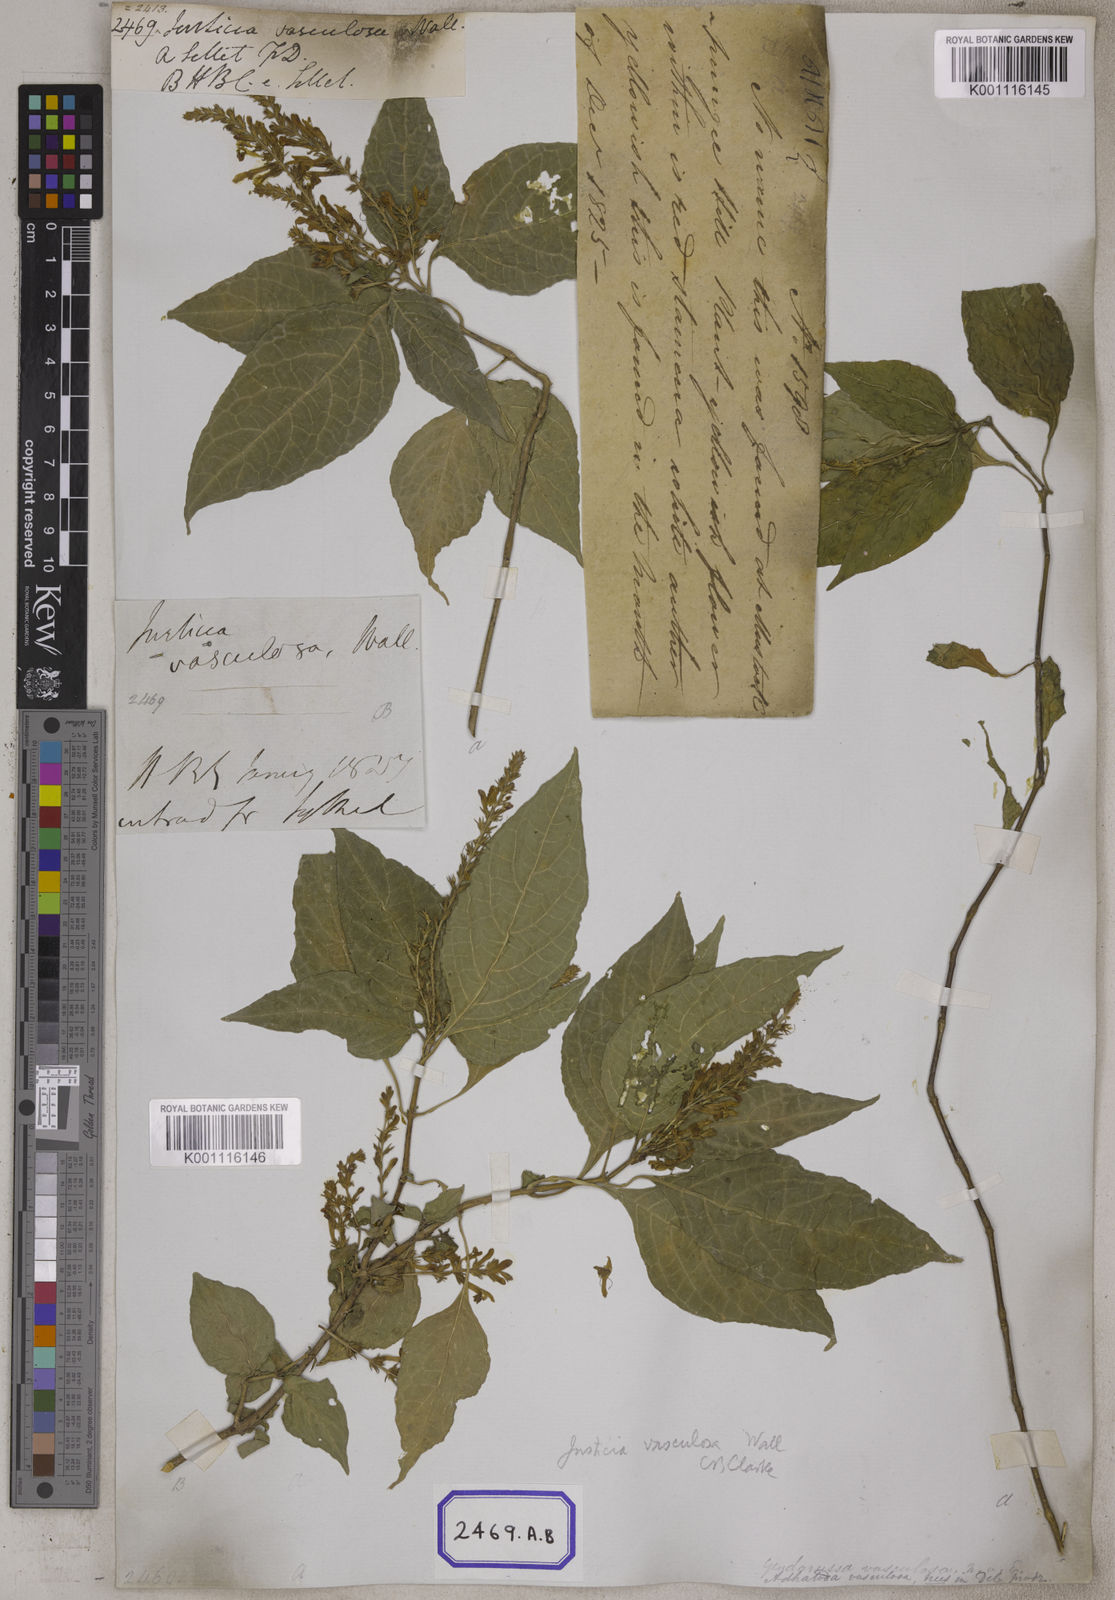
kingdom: Plantae
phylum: Tracheophyta
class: Magnoliopsida
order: Lamiales
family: Acanthaceae
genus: Justicia
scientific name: Justicia
